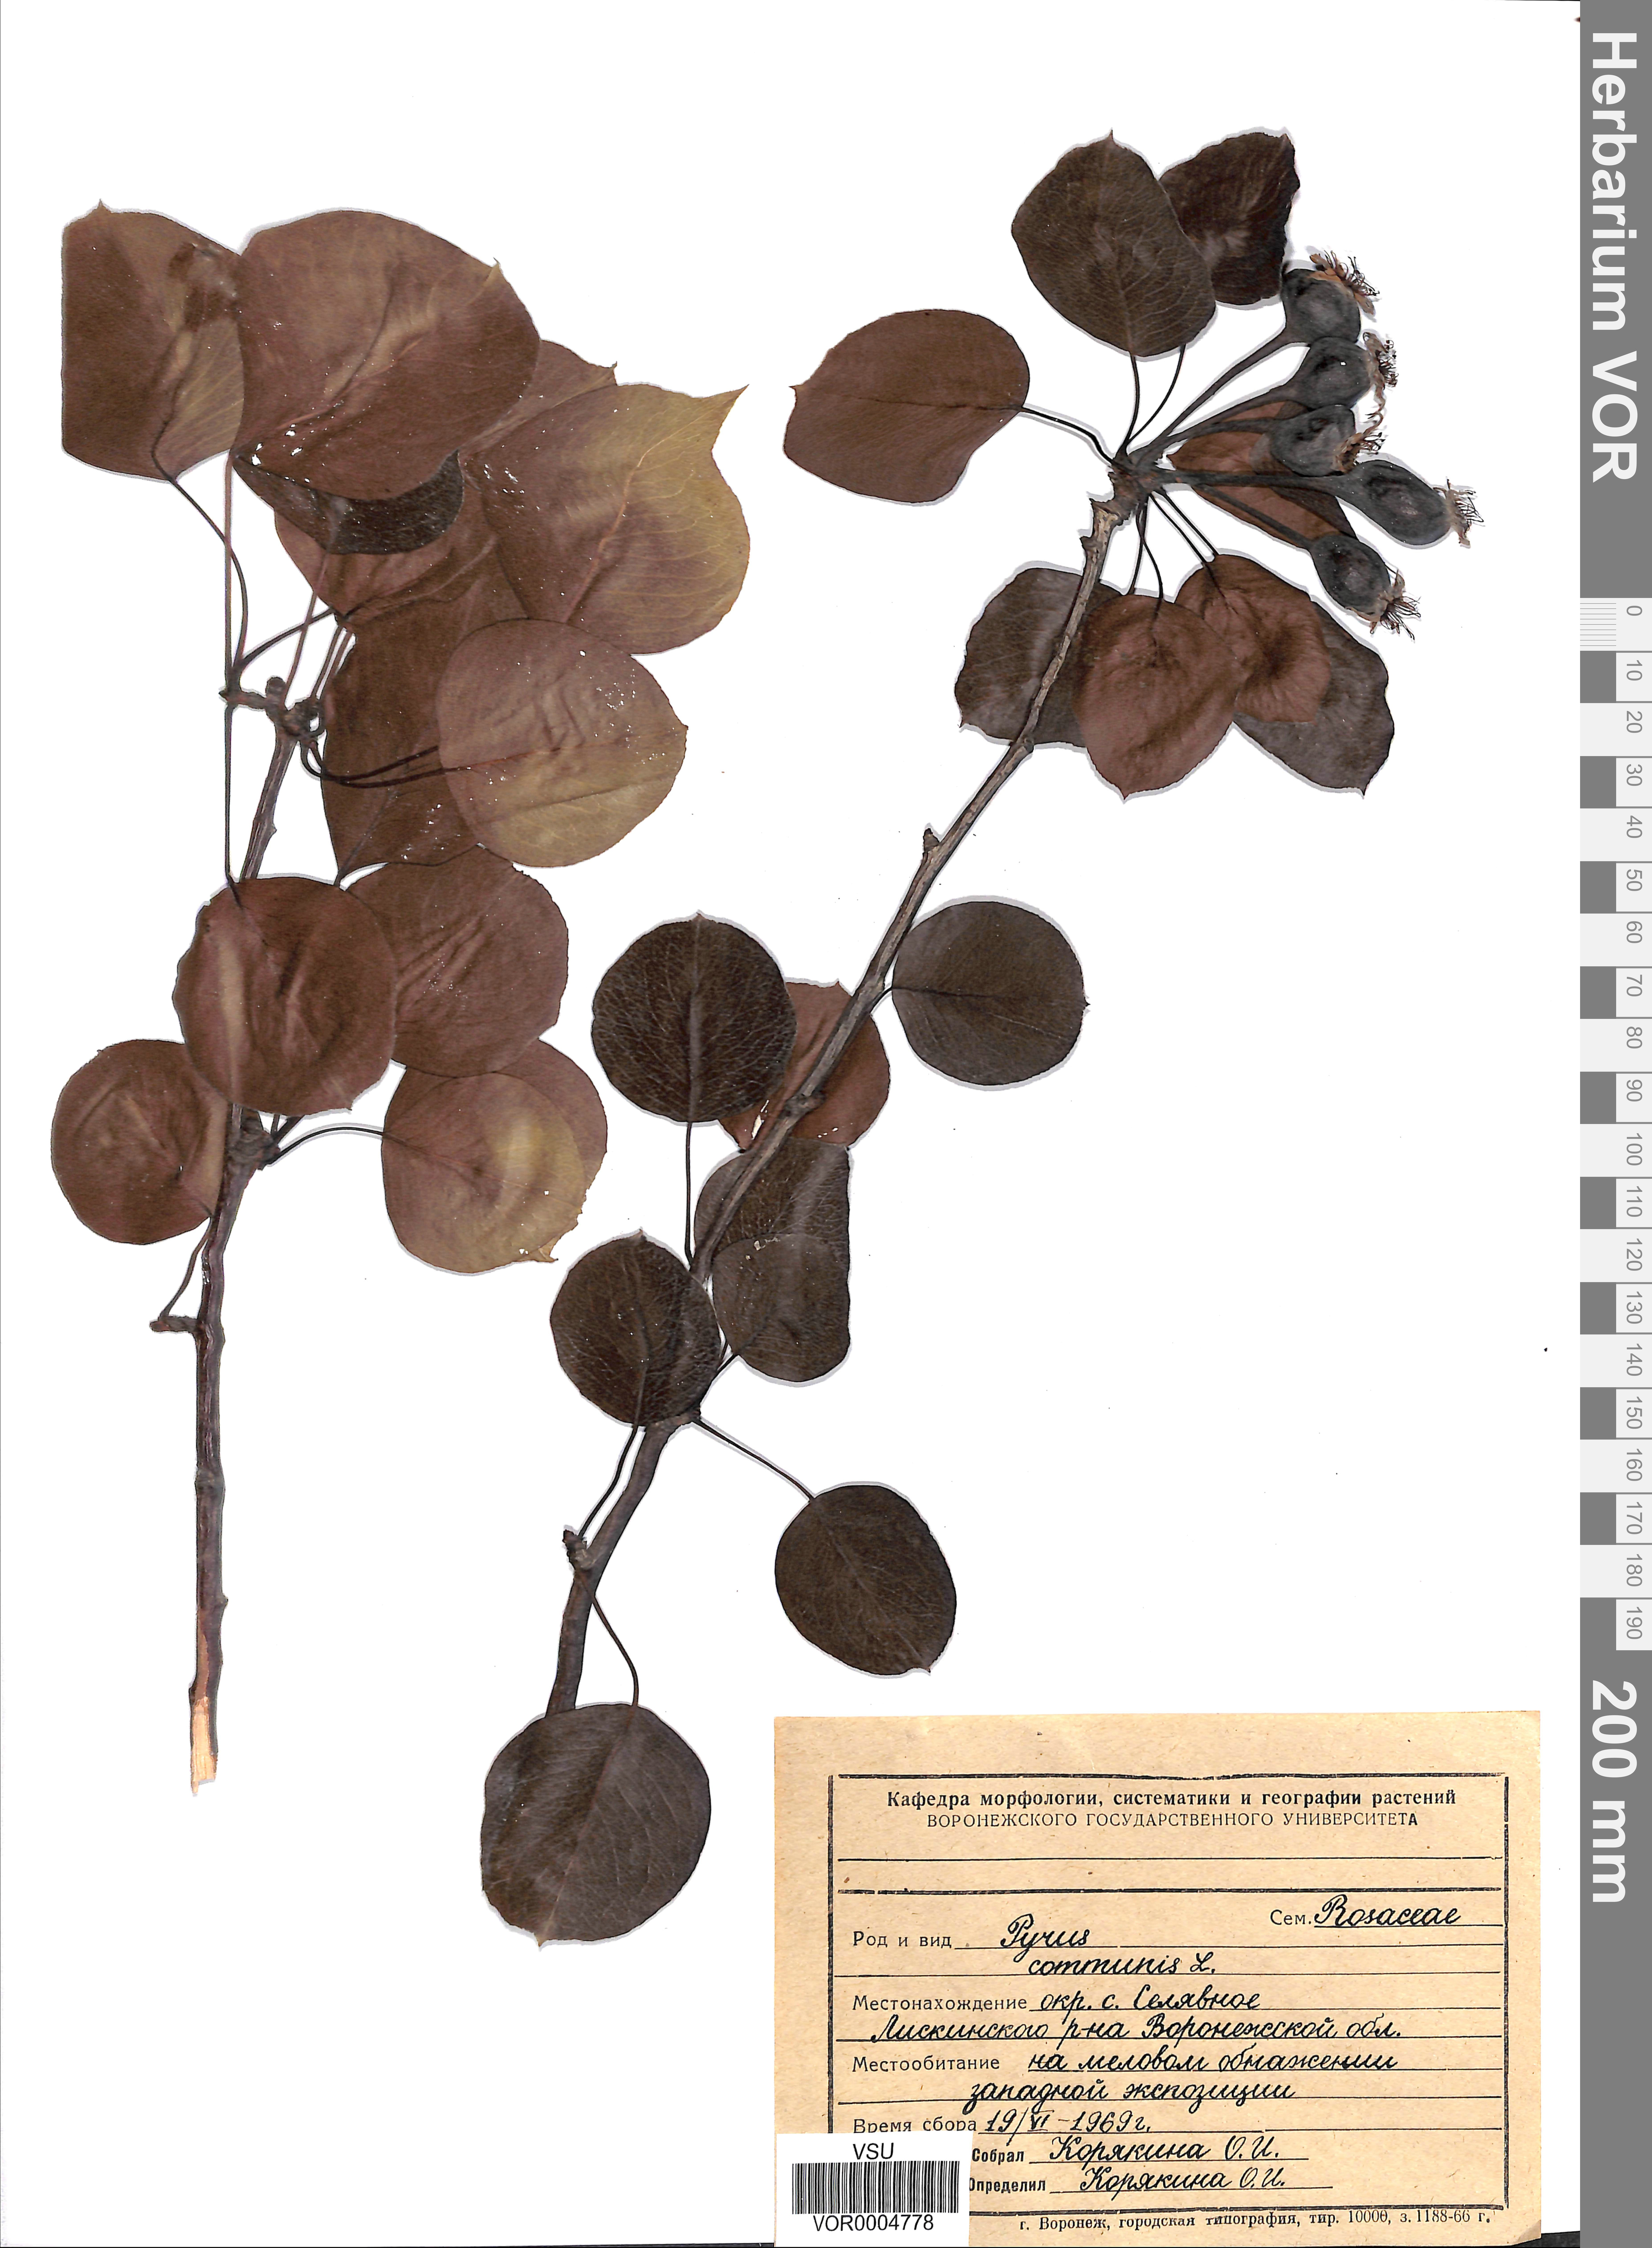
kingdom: Plantae
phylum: Tracheophyta
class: Magnoliopsida
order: Rosales
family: Rosaceae
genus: Pyrus
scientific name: Pyrus communis
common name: Pear
